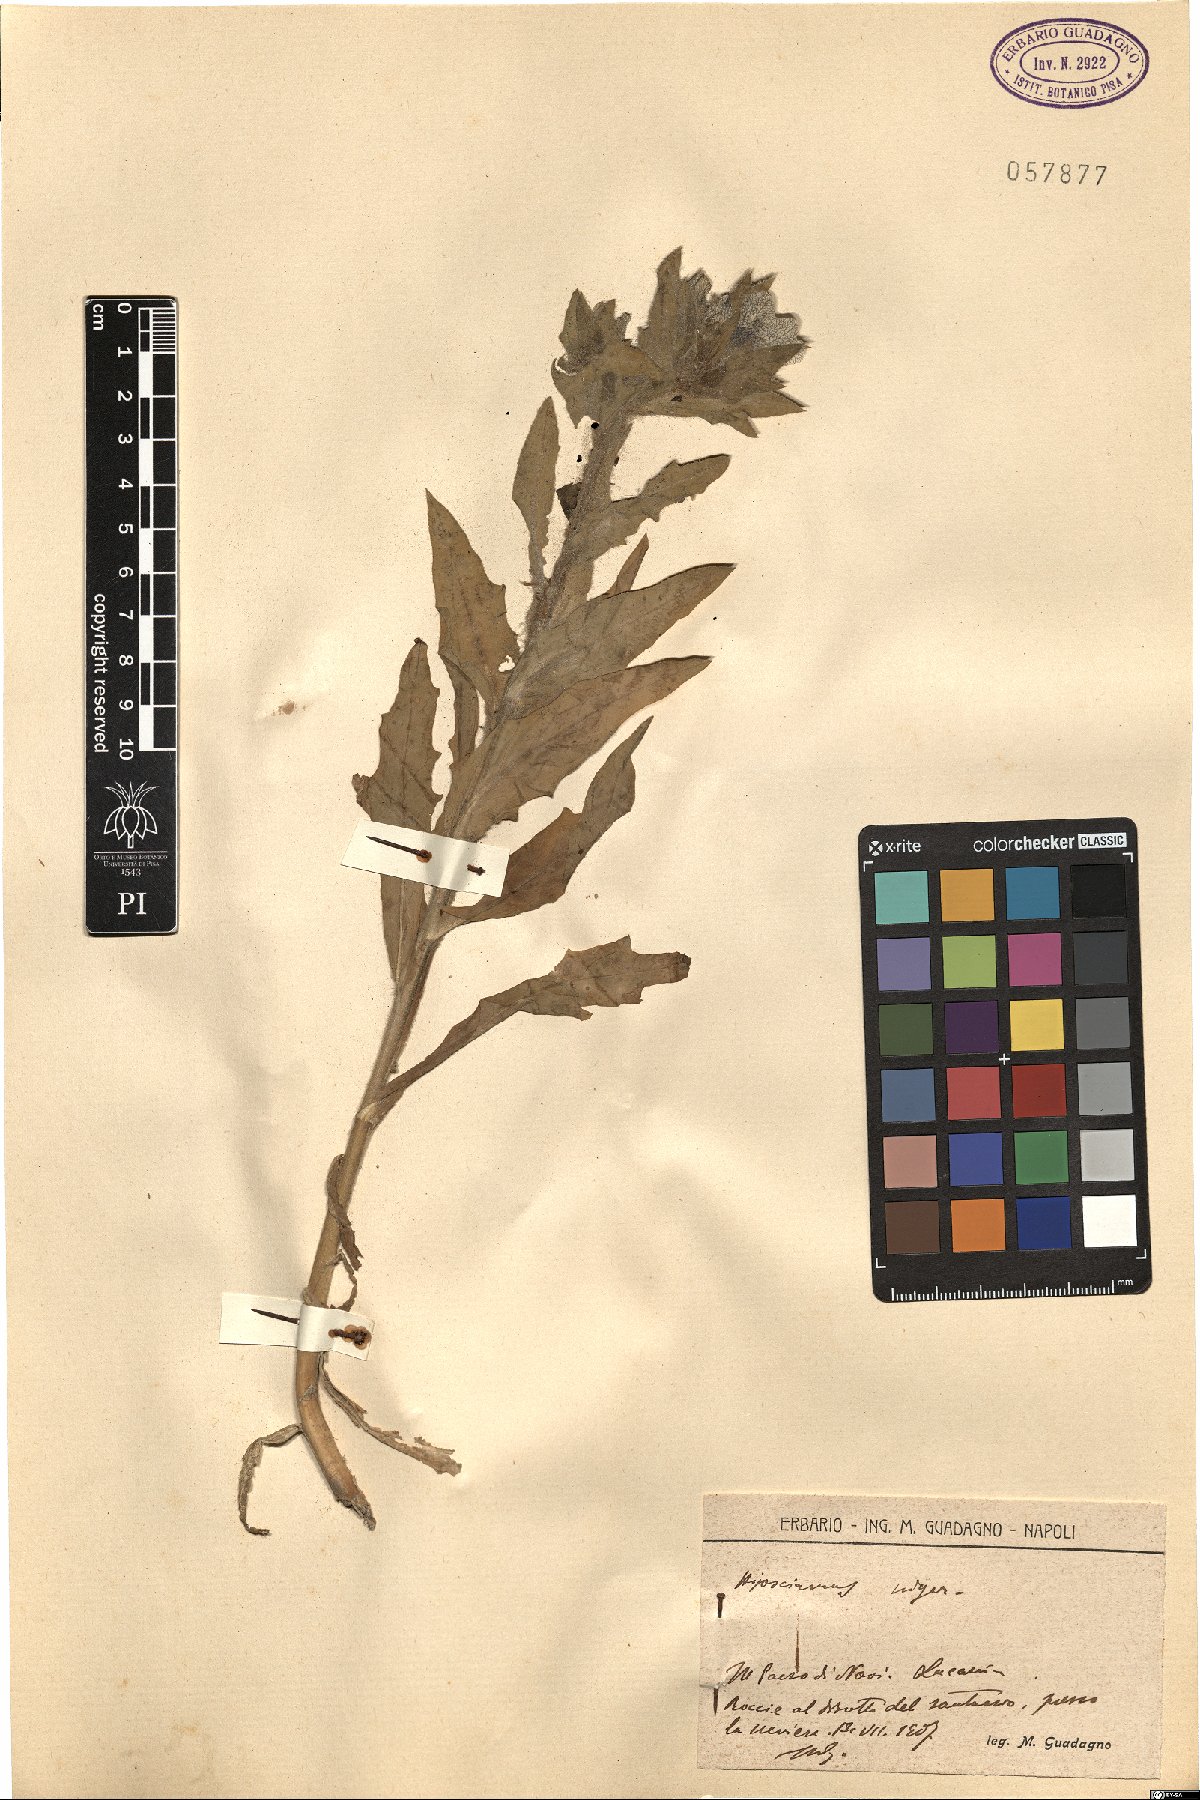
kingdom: Plantae
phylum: Tracheophyta
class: Magnoliopsida
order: Solanales
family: Solanaceae
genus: Hyoscyamus
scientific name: Hyoscyamus niger
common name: Henbane
